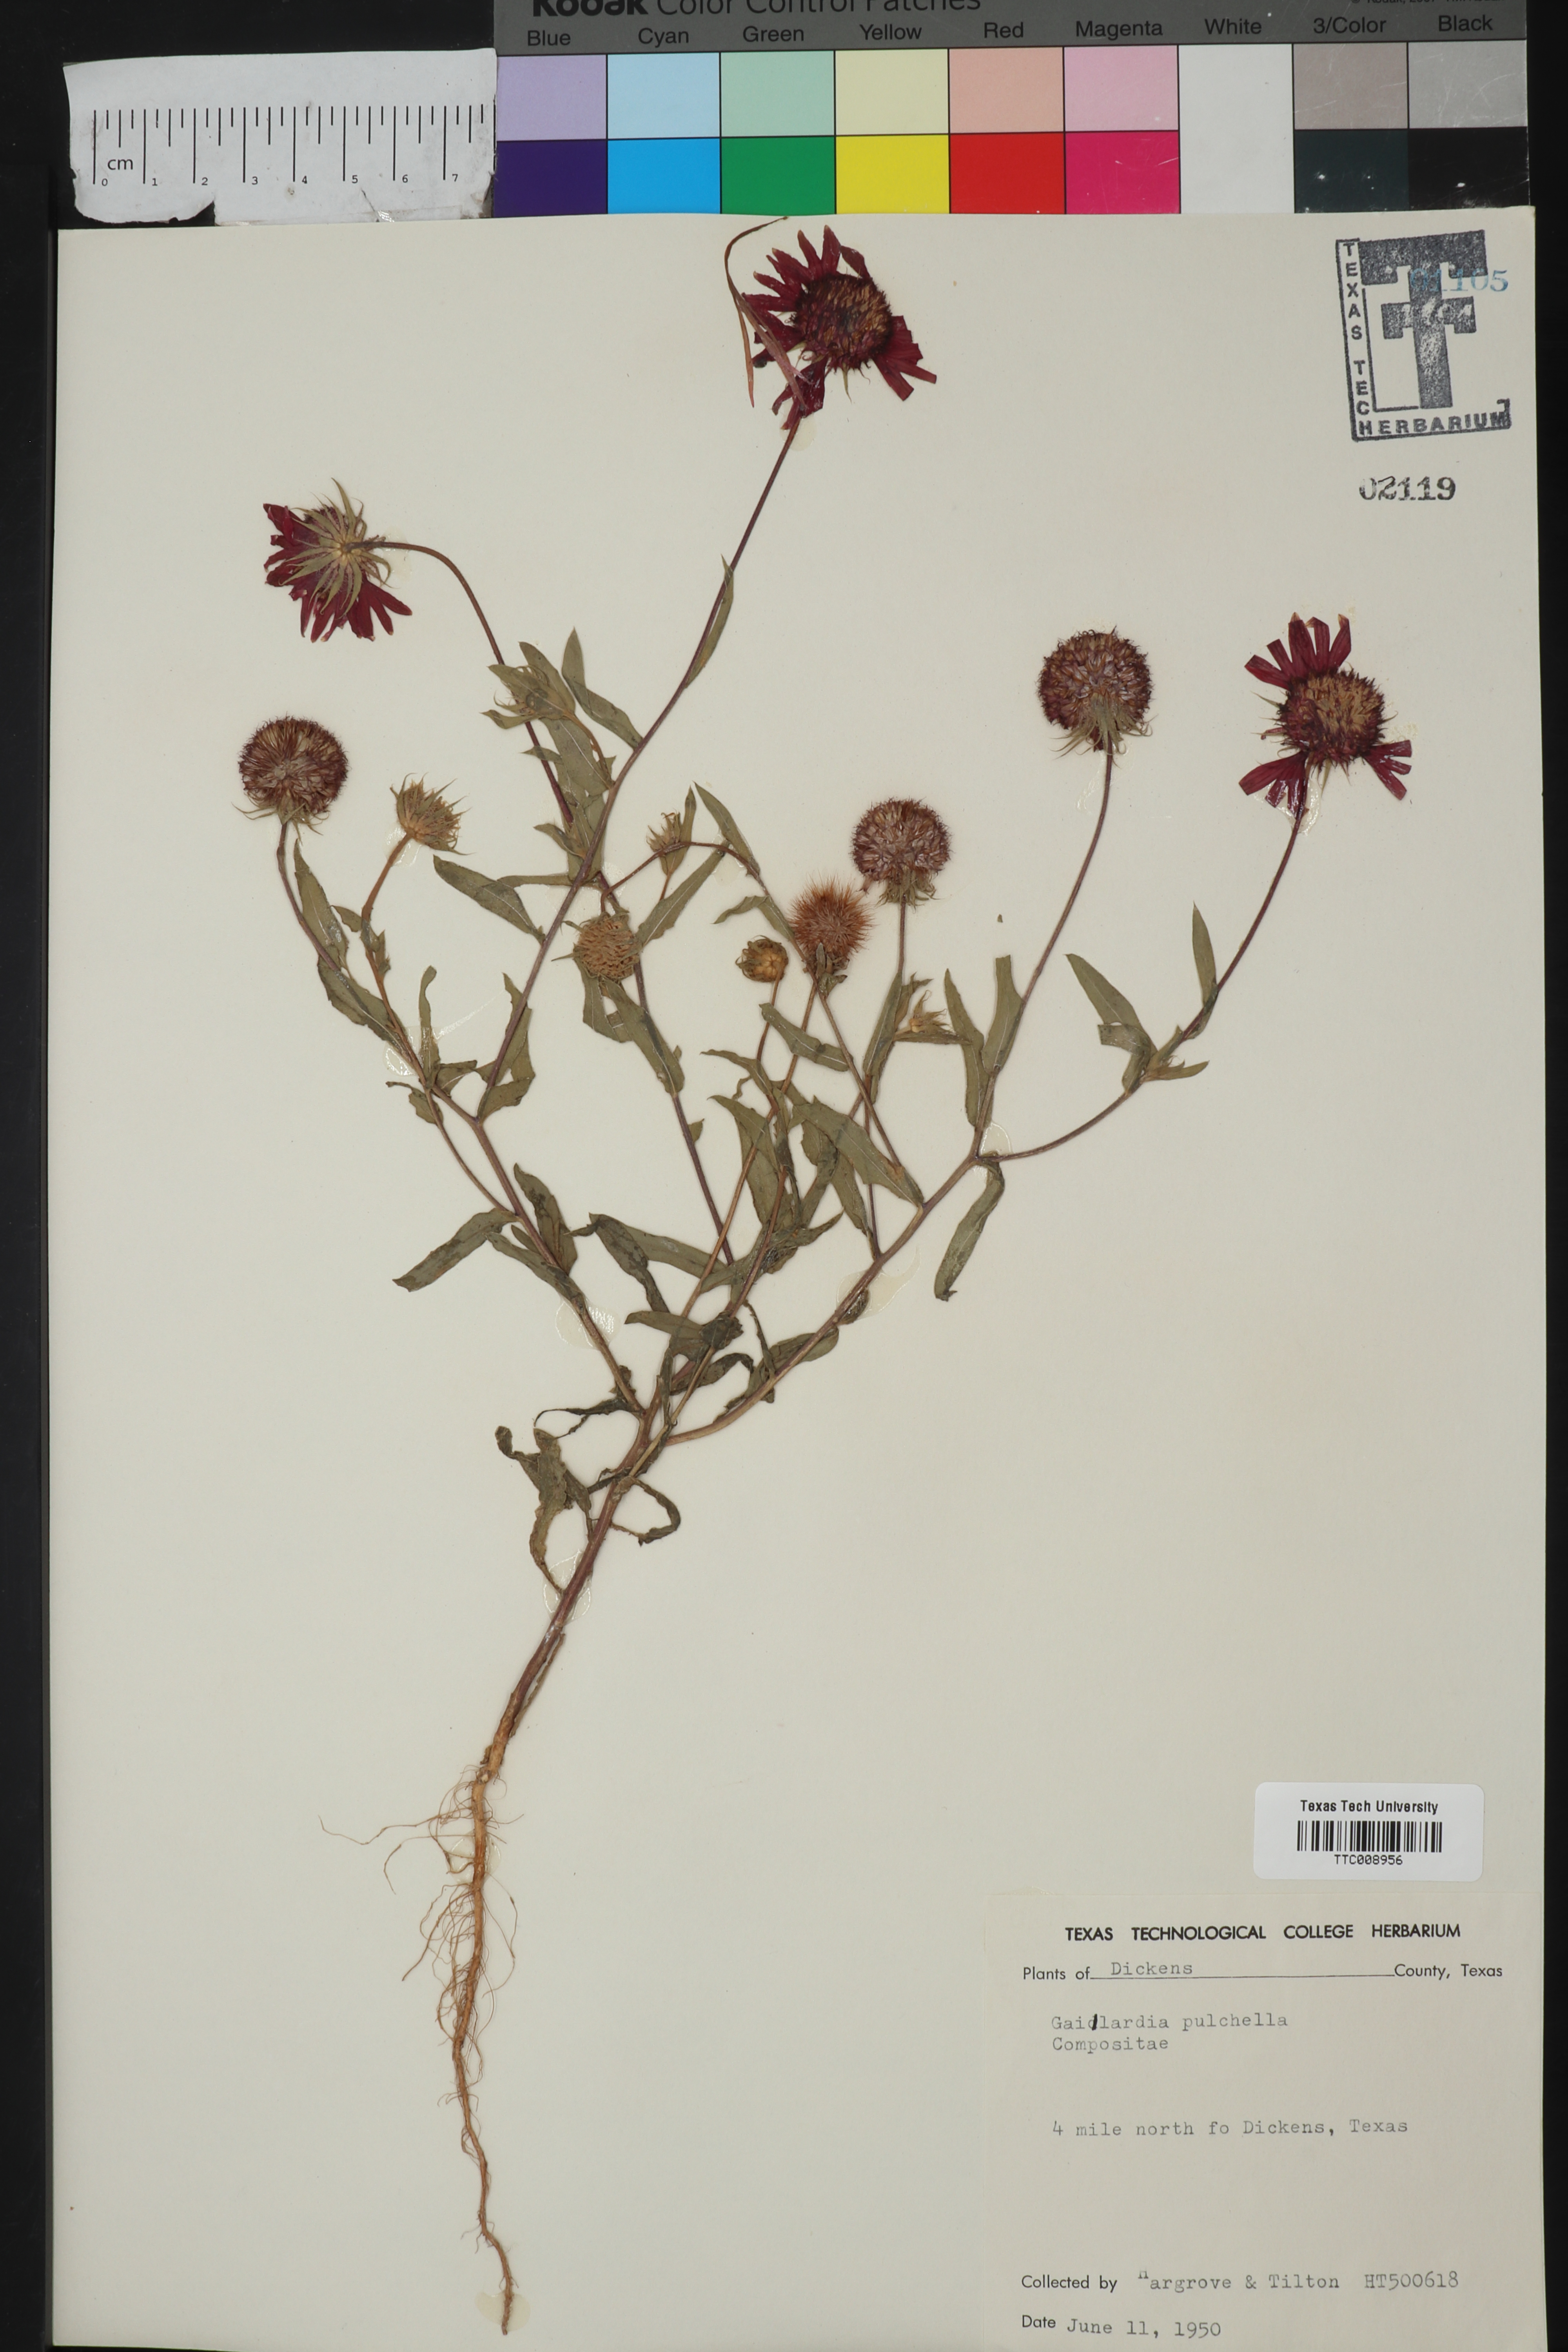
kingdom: Plantae
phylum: Tracheophyta
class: Magnoliopsida
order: Asterales
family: Asteraceae
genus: Gaillardia
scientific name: Gaillardia pulchella
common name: Firewheel
